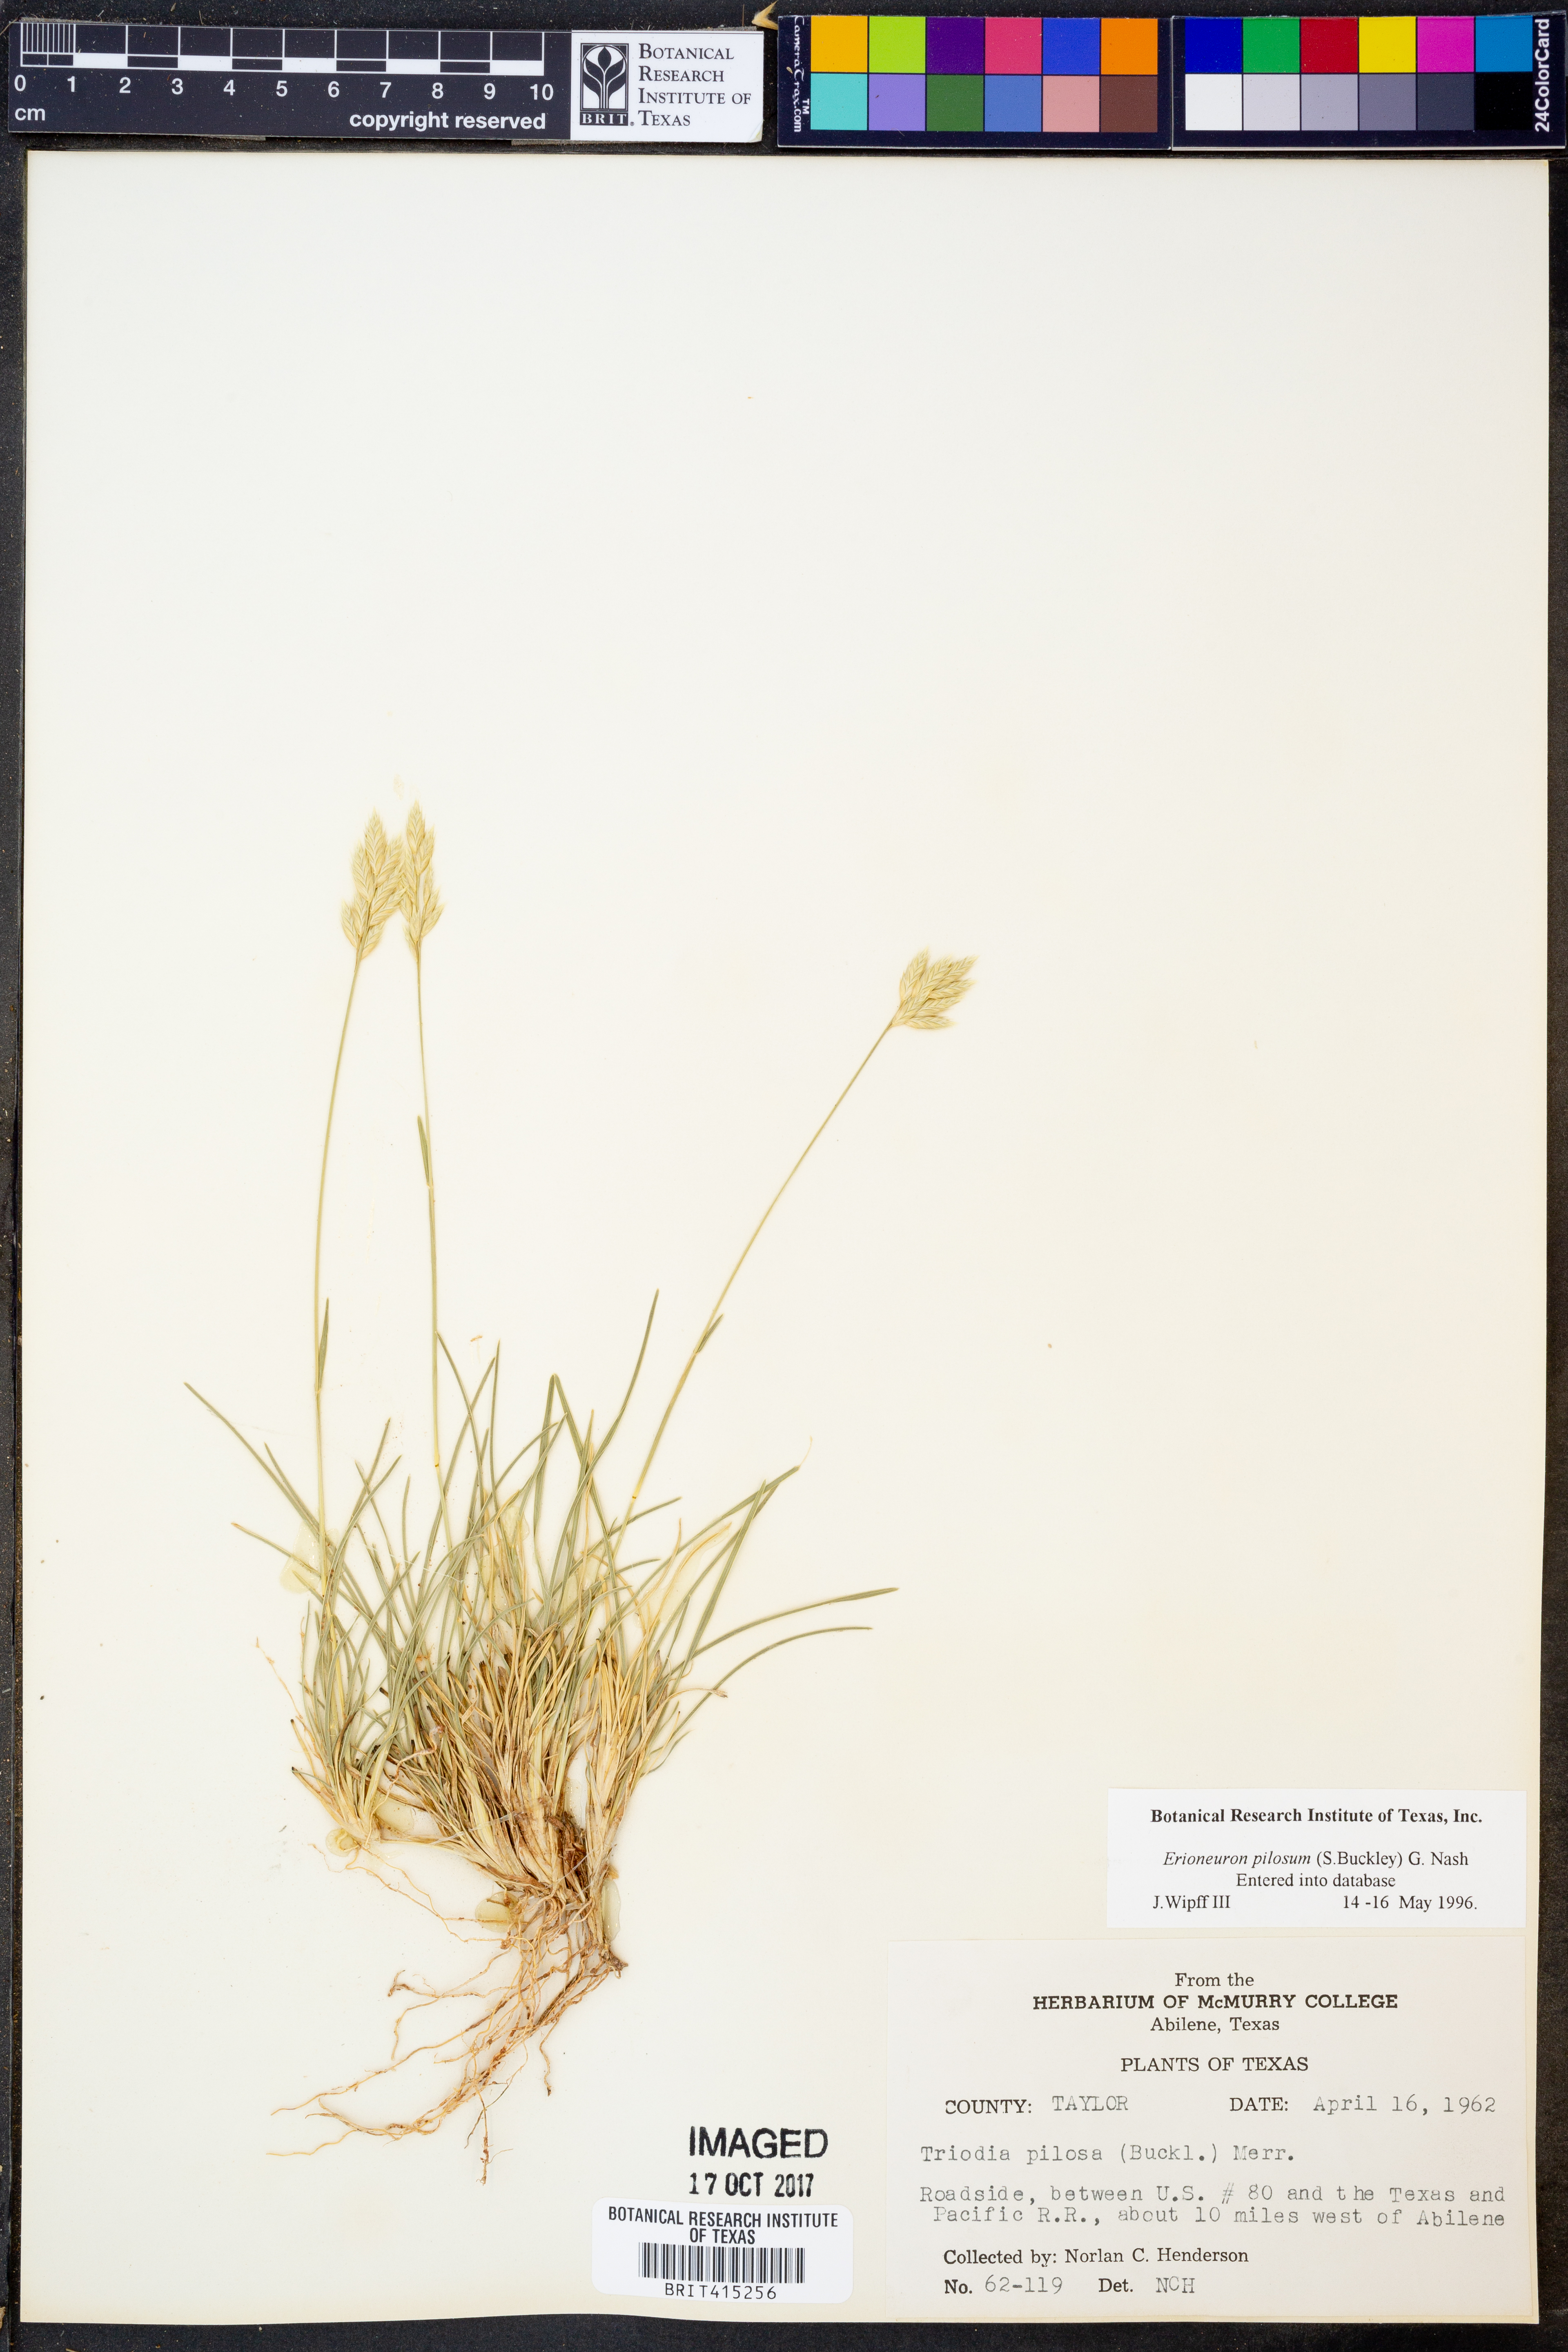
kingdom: Plantae
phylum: Tracheophyta
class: Liliopsida
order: Poales
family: Poaceae
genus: Erioneuron
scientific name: Erioneuron pilosum
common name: Hairy woolly grass
